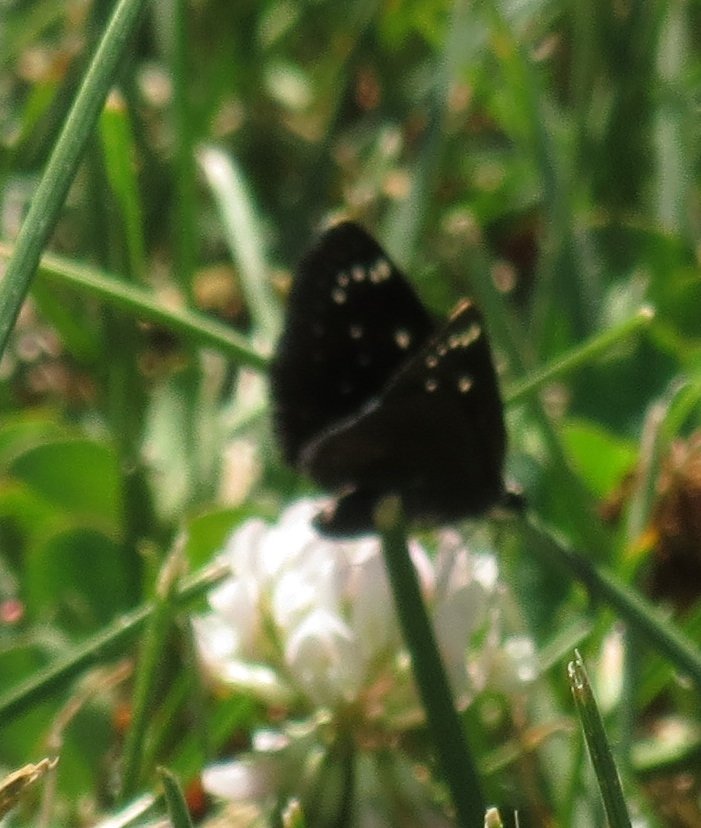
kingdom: Animalia
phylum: Arthropoda
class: Insecta
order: Lepidoptera
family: Hesperiidae
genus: Pholisora
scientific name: Pholisora catullus
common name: Common Sootywing
